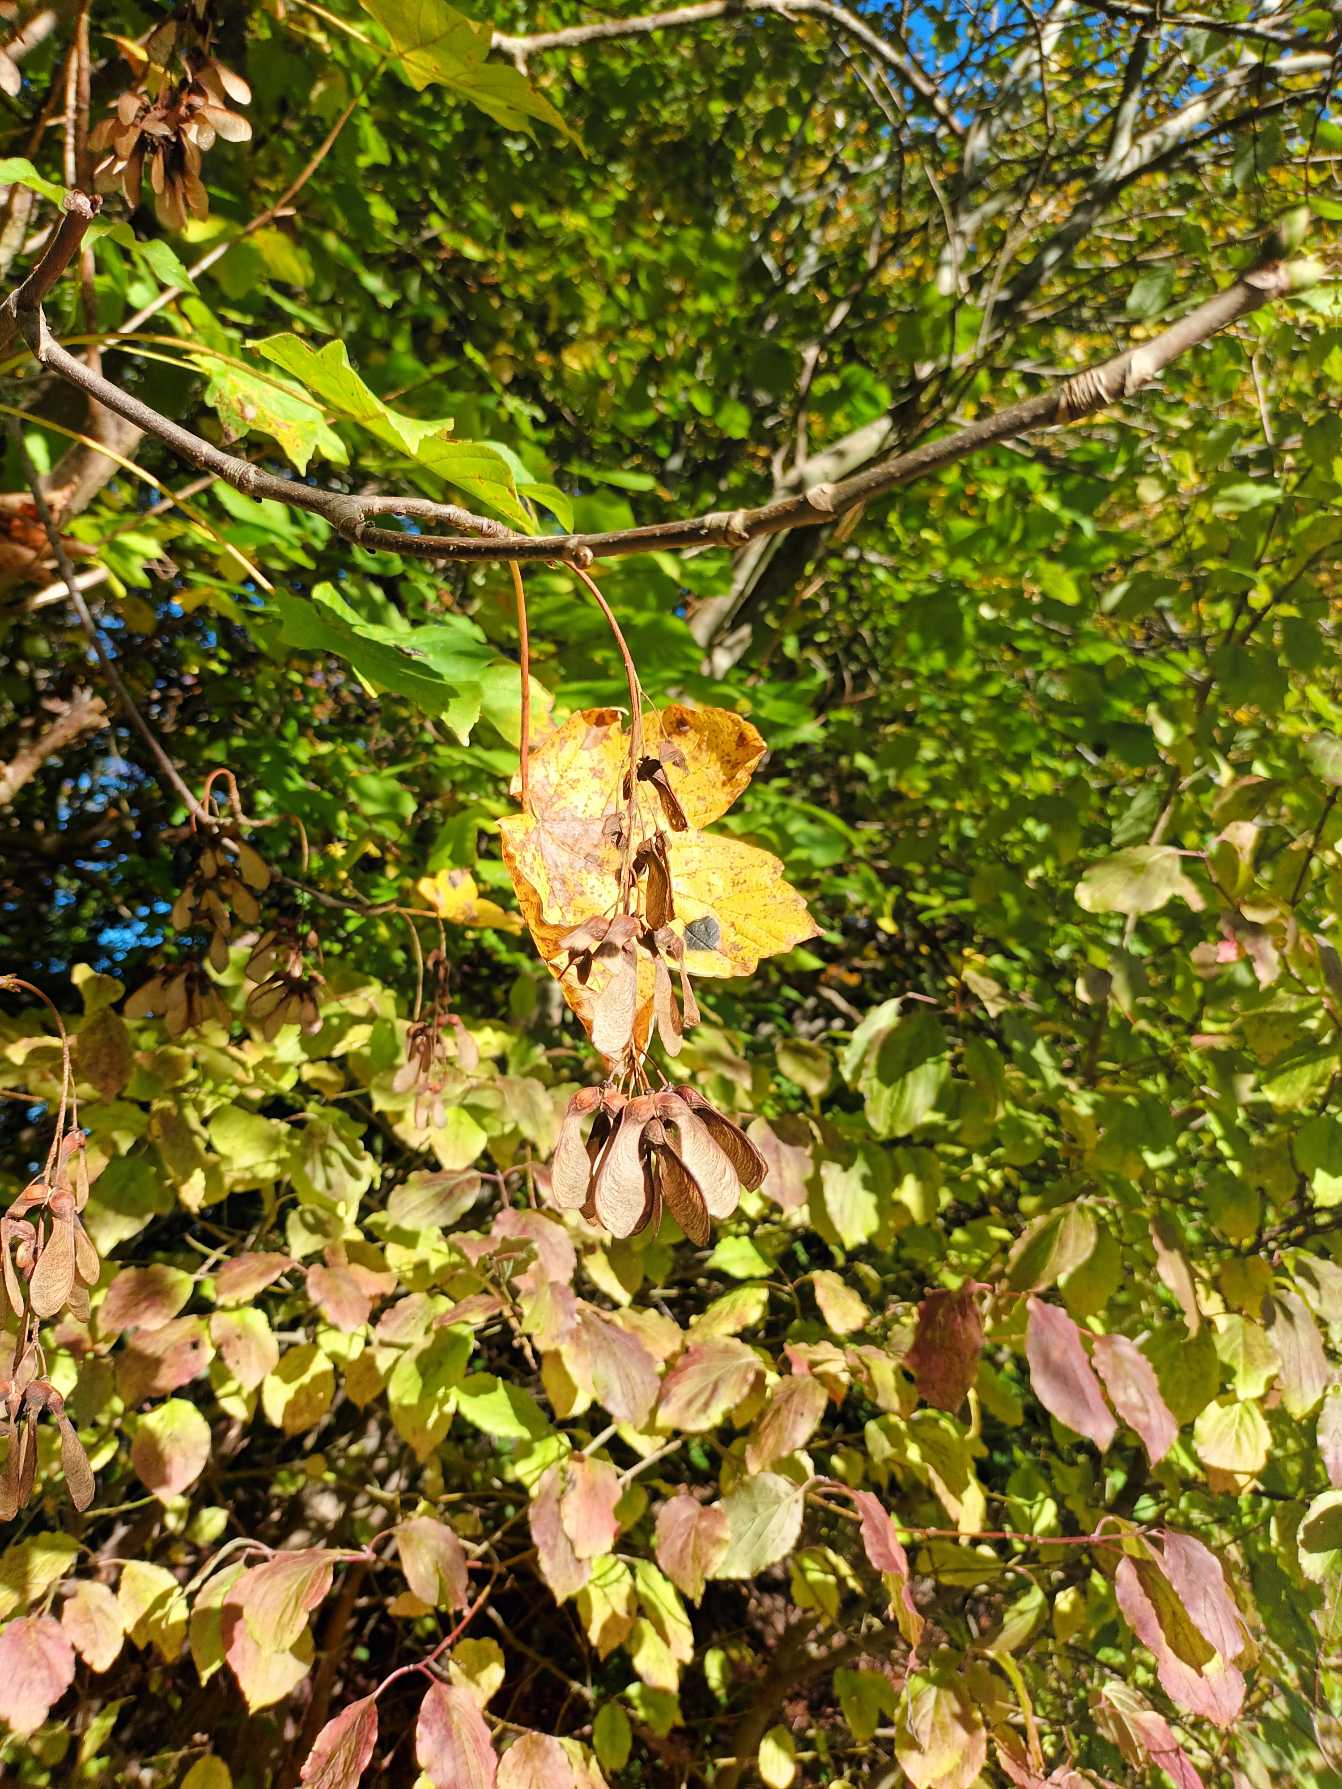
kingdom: Plantae
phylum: Tracheophyta
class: Magnoliopsida
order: Sapindales
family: Sapindaceae
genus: Acer
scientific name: Acer pseudoplatanus
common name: Ahorn
